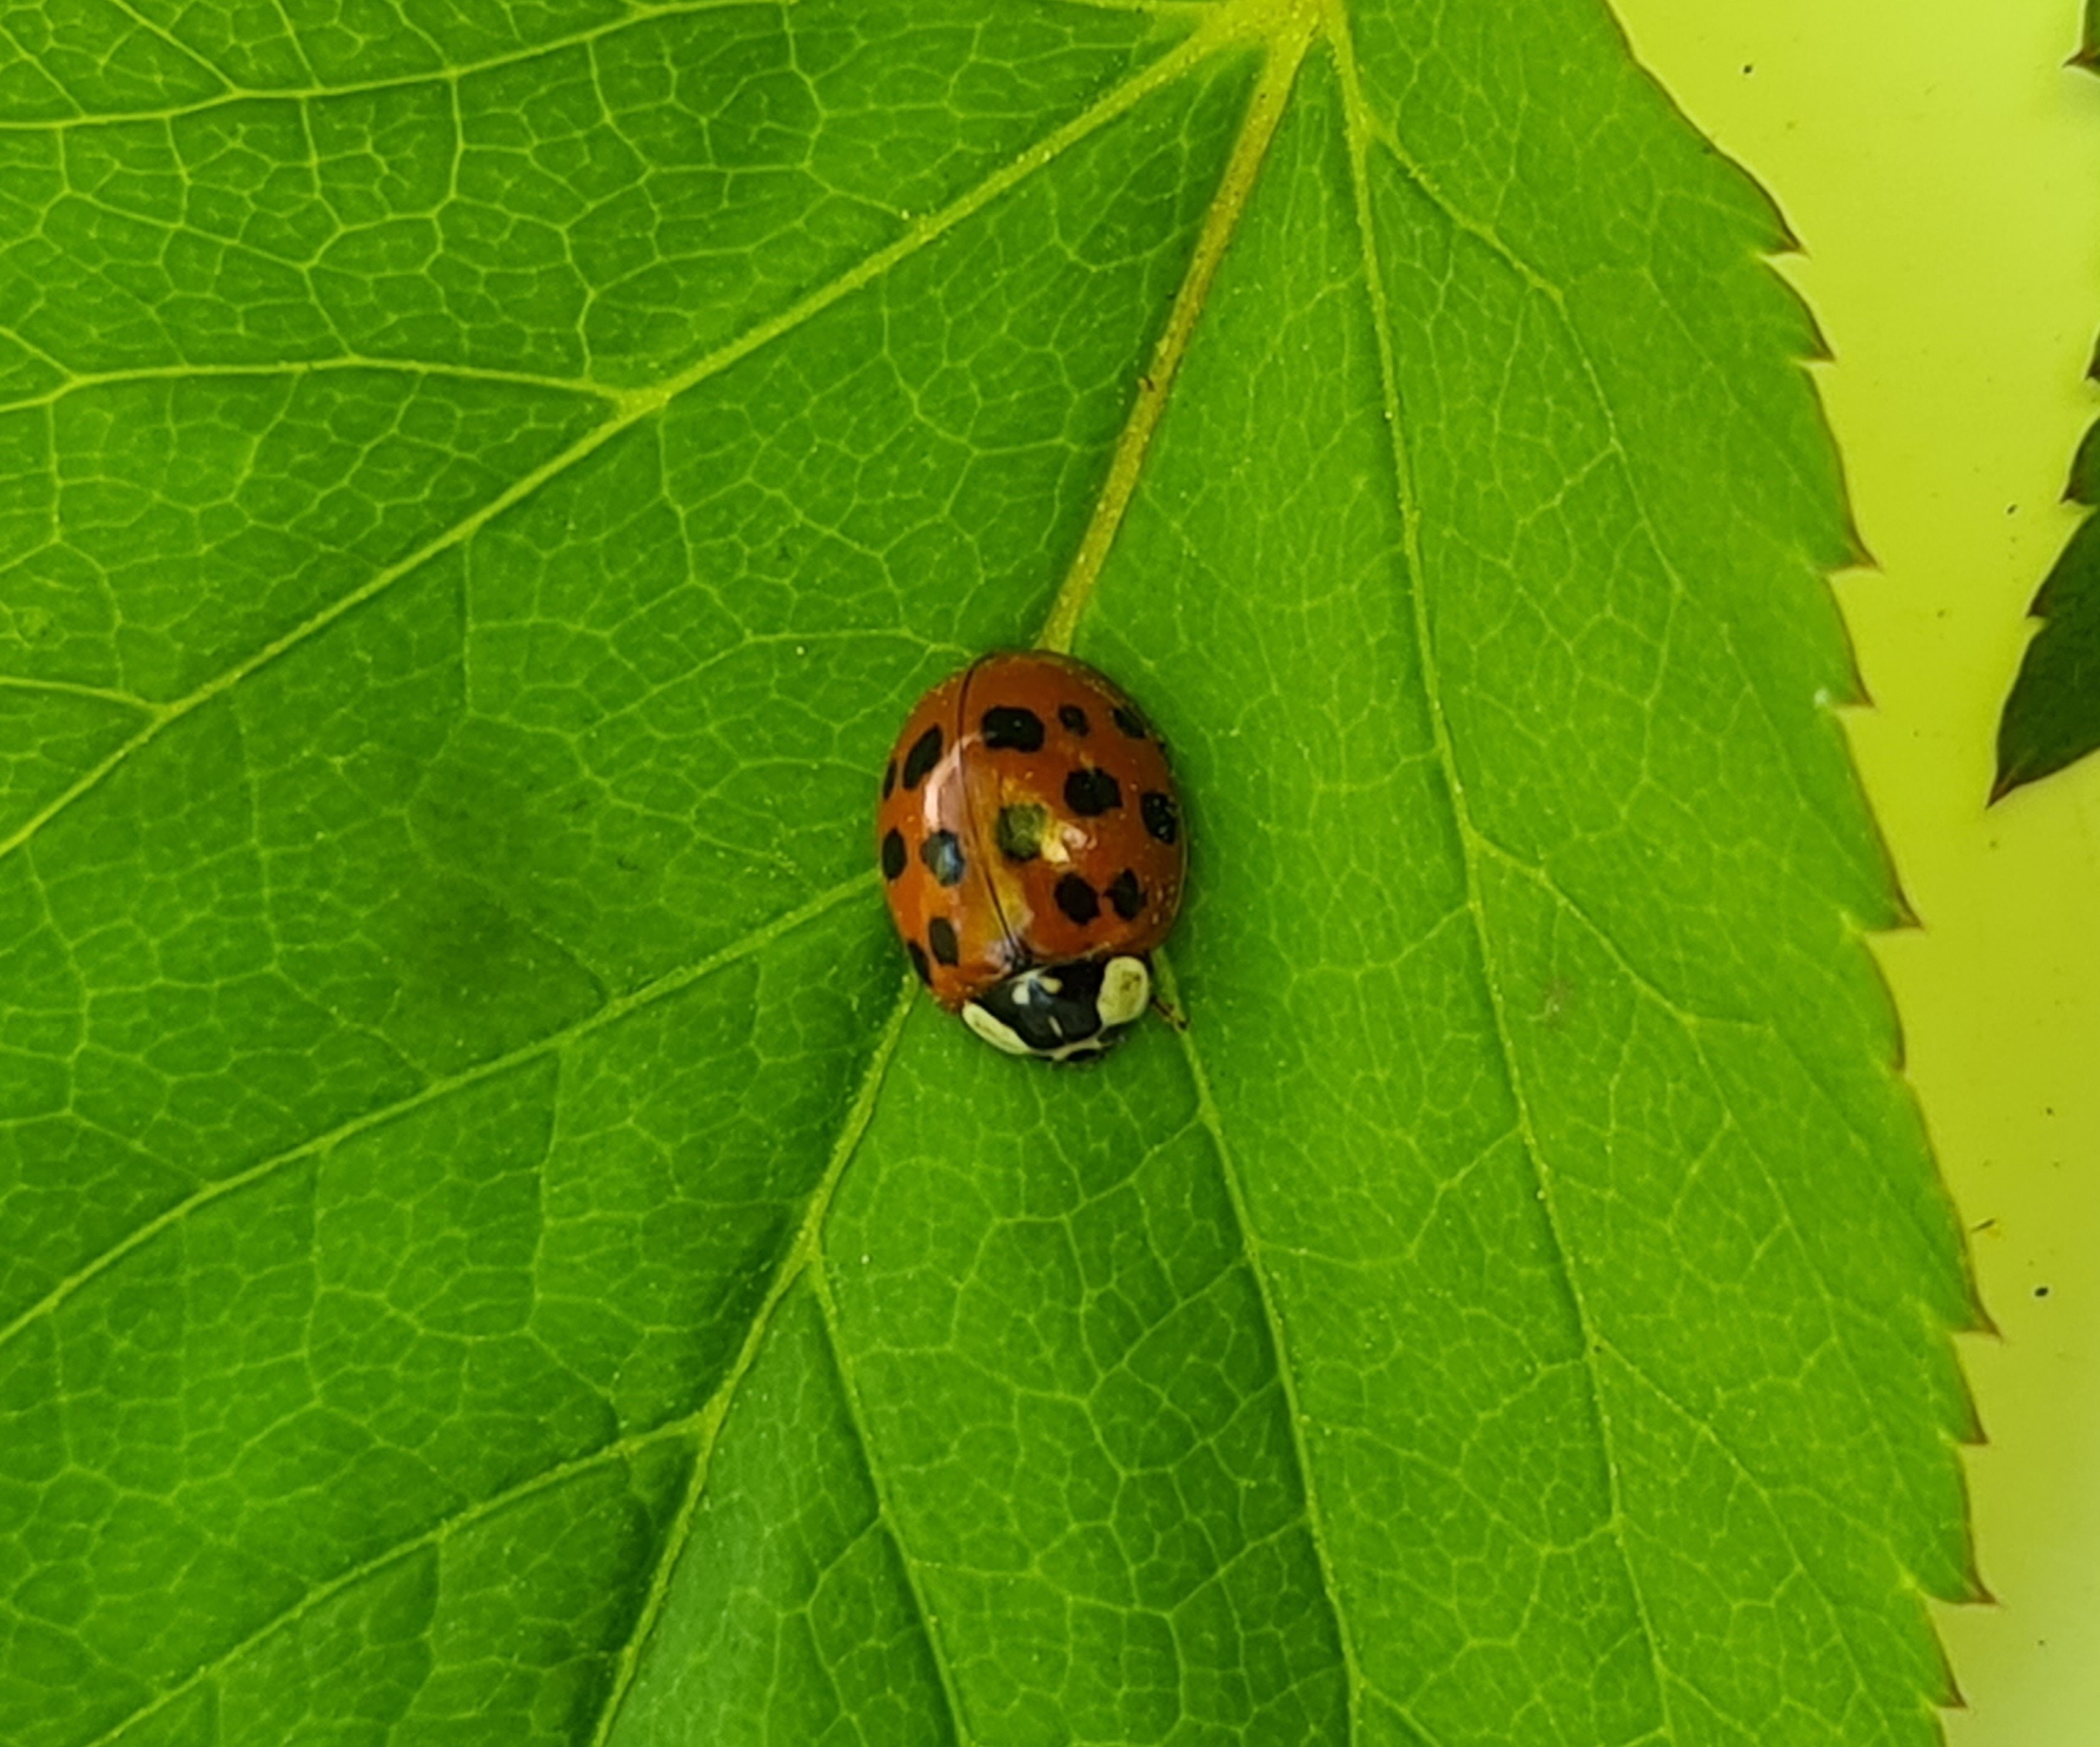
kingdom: Animalia
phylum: Arthropoda
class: Insecta
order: Coleoptera
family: Coccinellidae
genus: Harmonia
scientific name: Harmonia axyridis
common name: Harlekinmariehøne
